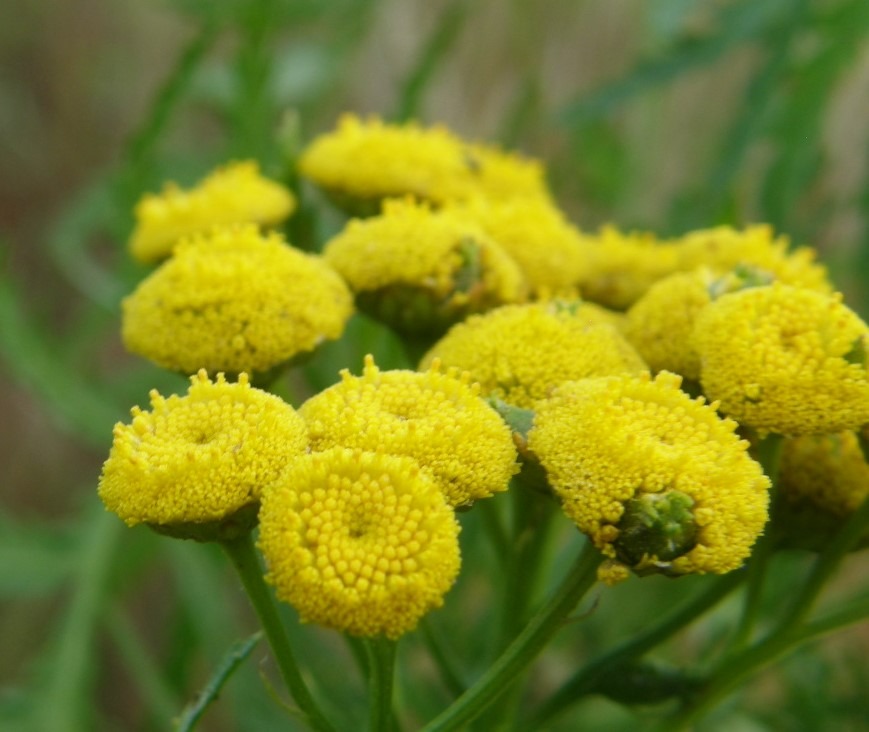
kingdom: Plantae
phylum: Tracheophyta
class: Magnoliopsida
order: Asterales
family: Asteraceae
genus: Tanacetum
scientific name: Tanacetum vulgare
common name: Rejnfan
